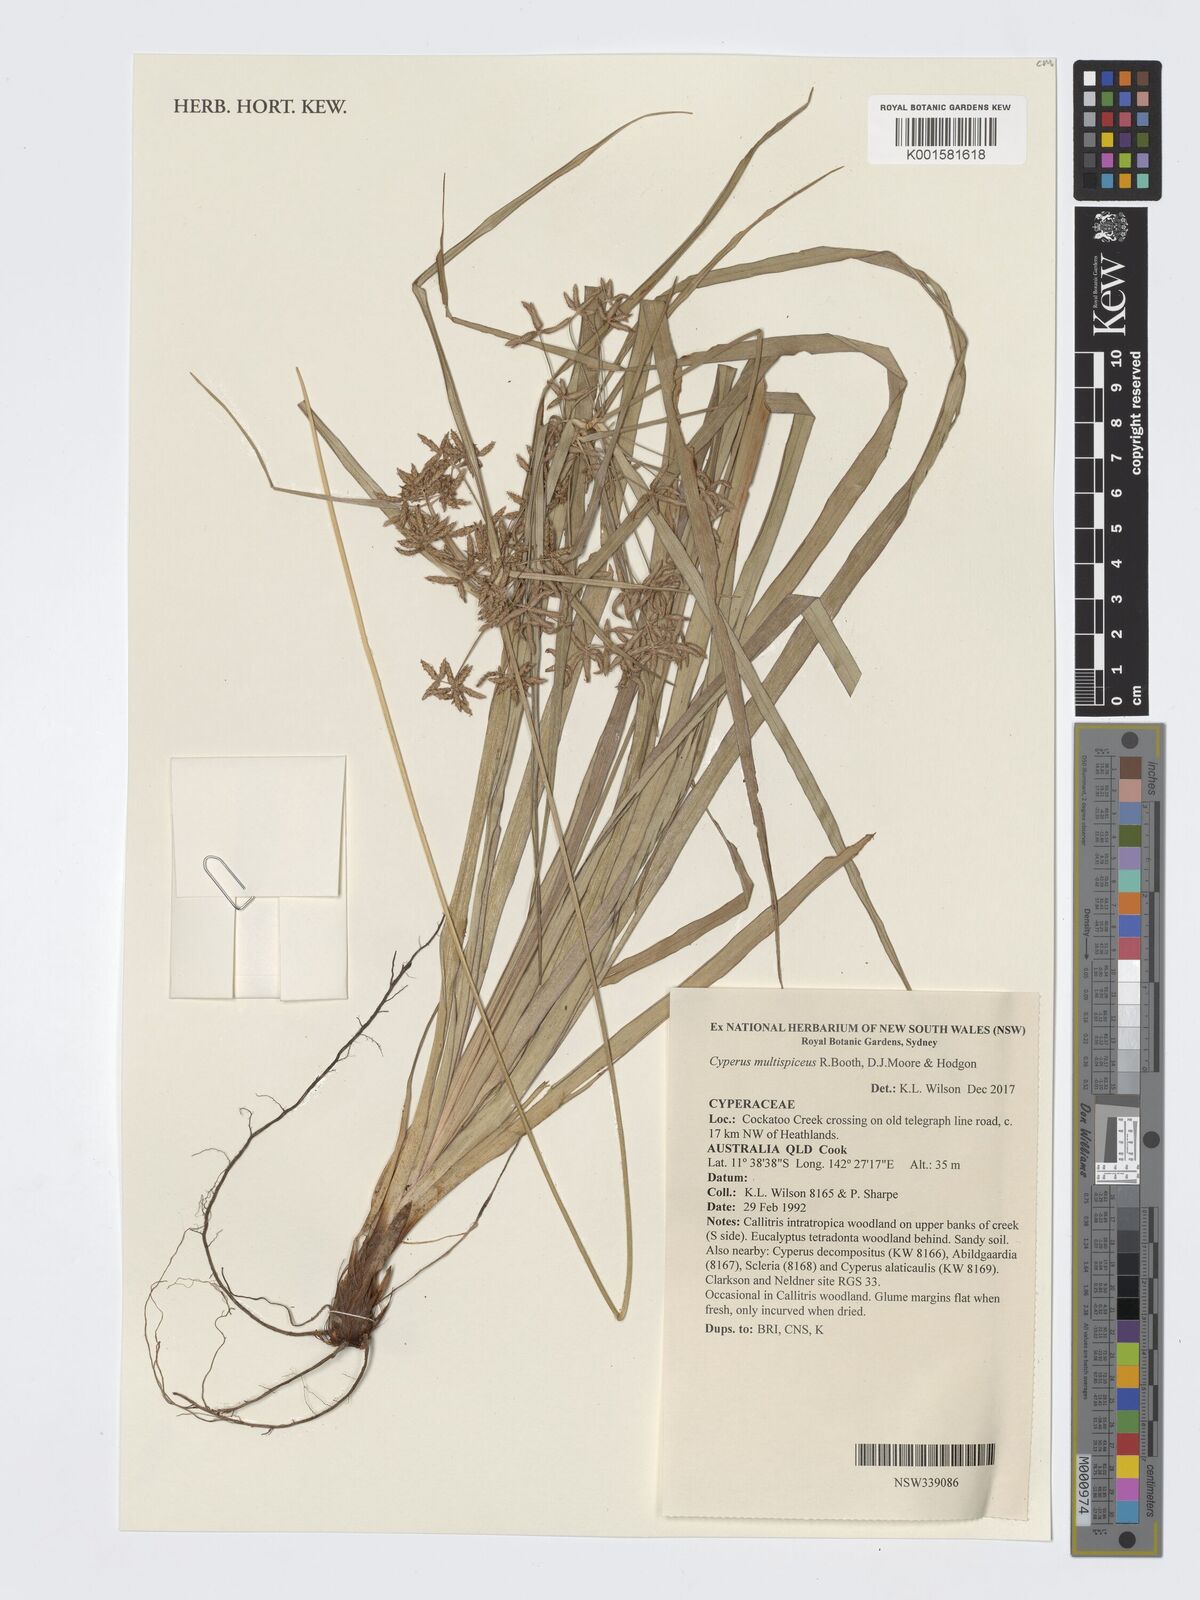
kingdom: Plantae
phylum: Tracheophyta
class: Liliopsida
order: Poales
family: Cyperaceae
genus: Cyperus
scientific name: Cyperus multispiceus
